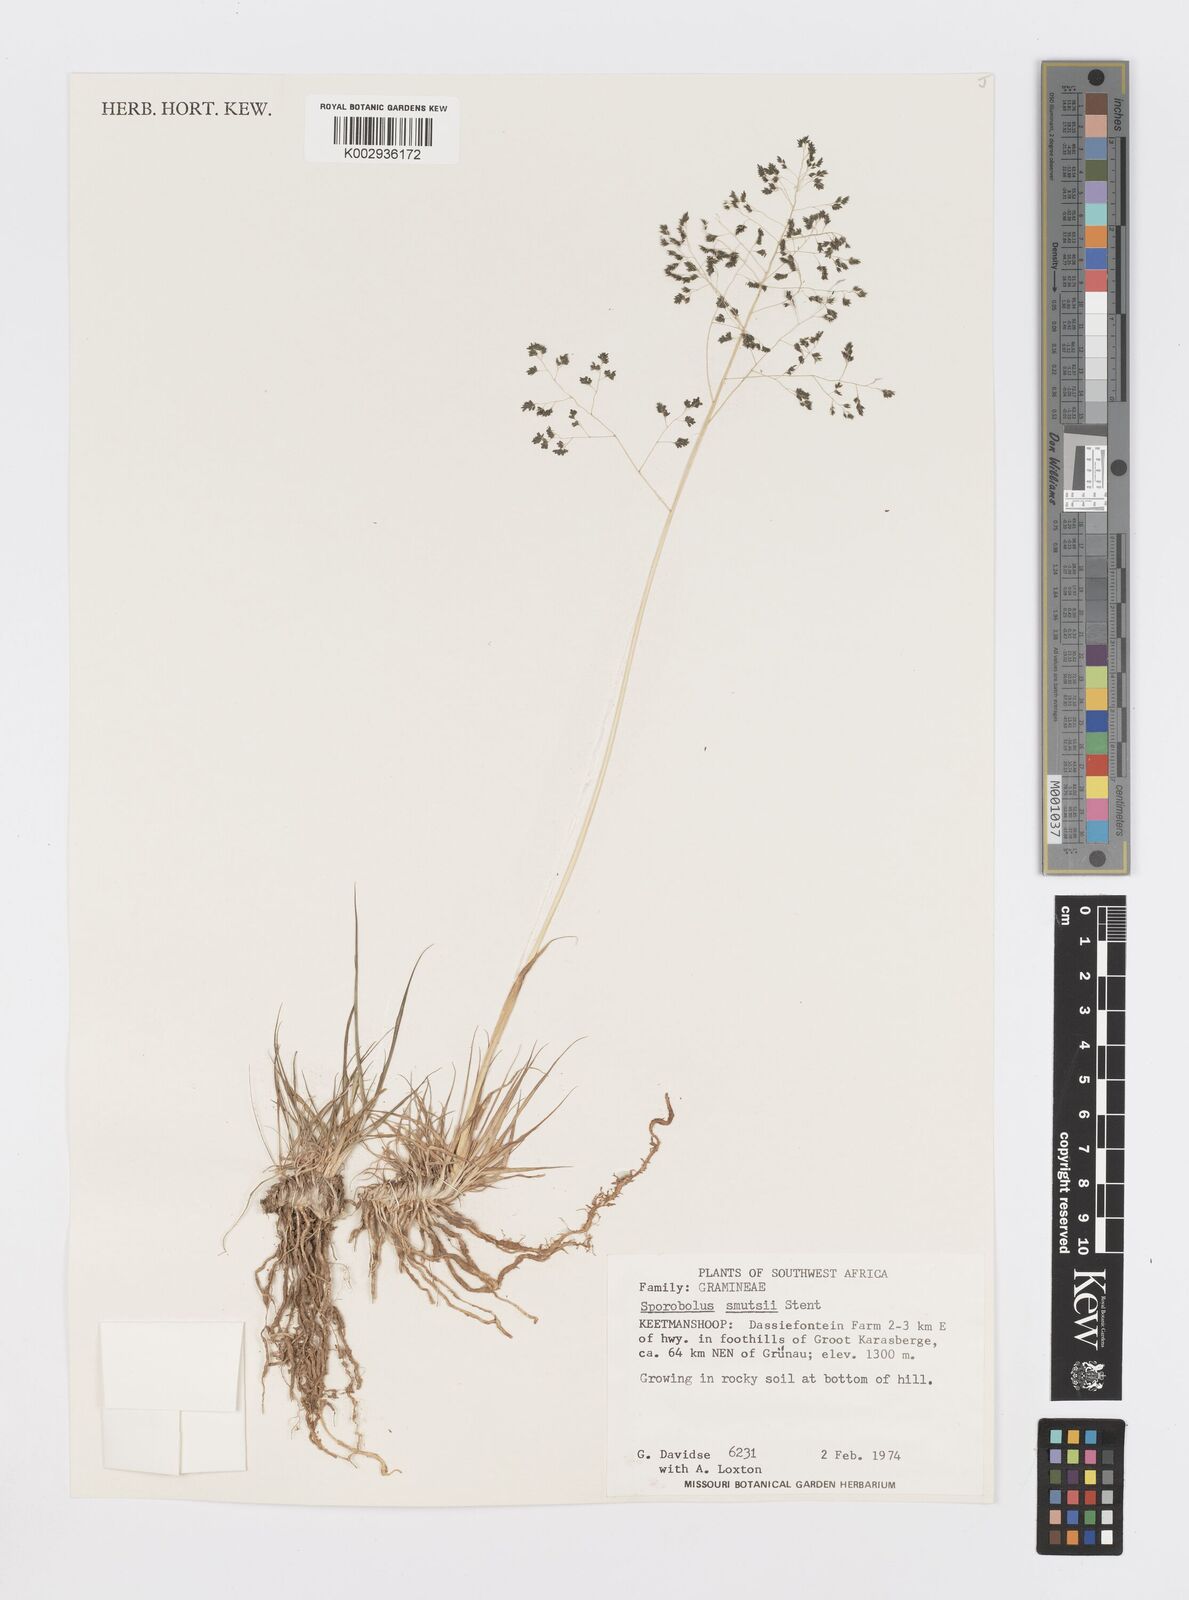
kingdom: Plantae
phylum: Tracheophyta
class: Liliopsida
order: Poales
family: Poaceae
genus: Sporobolus
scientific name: Sporobolus ioclados
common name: Pan dropseed
